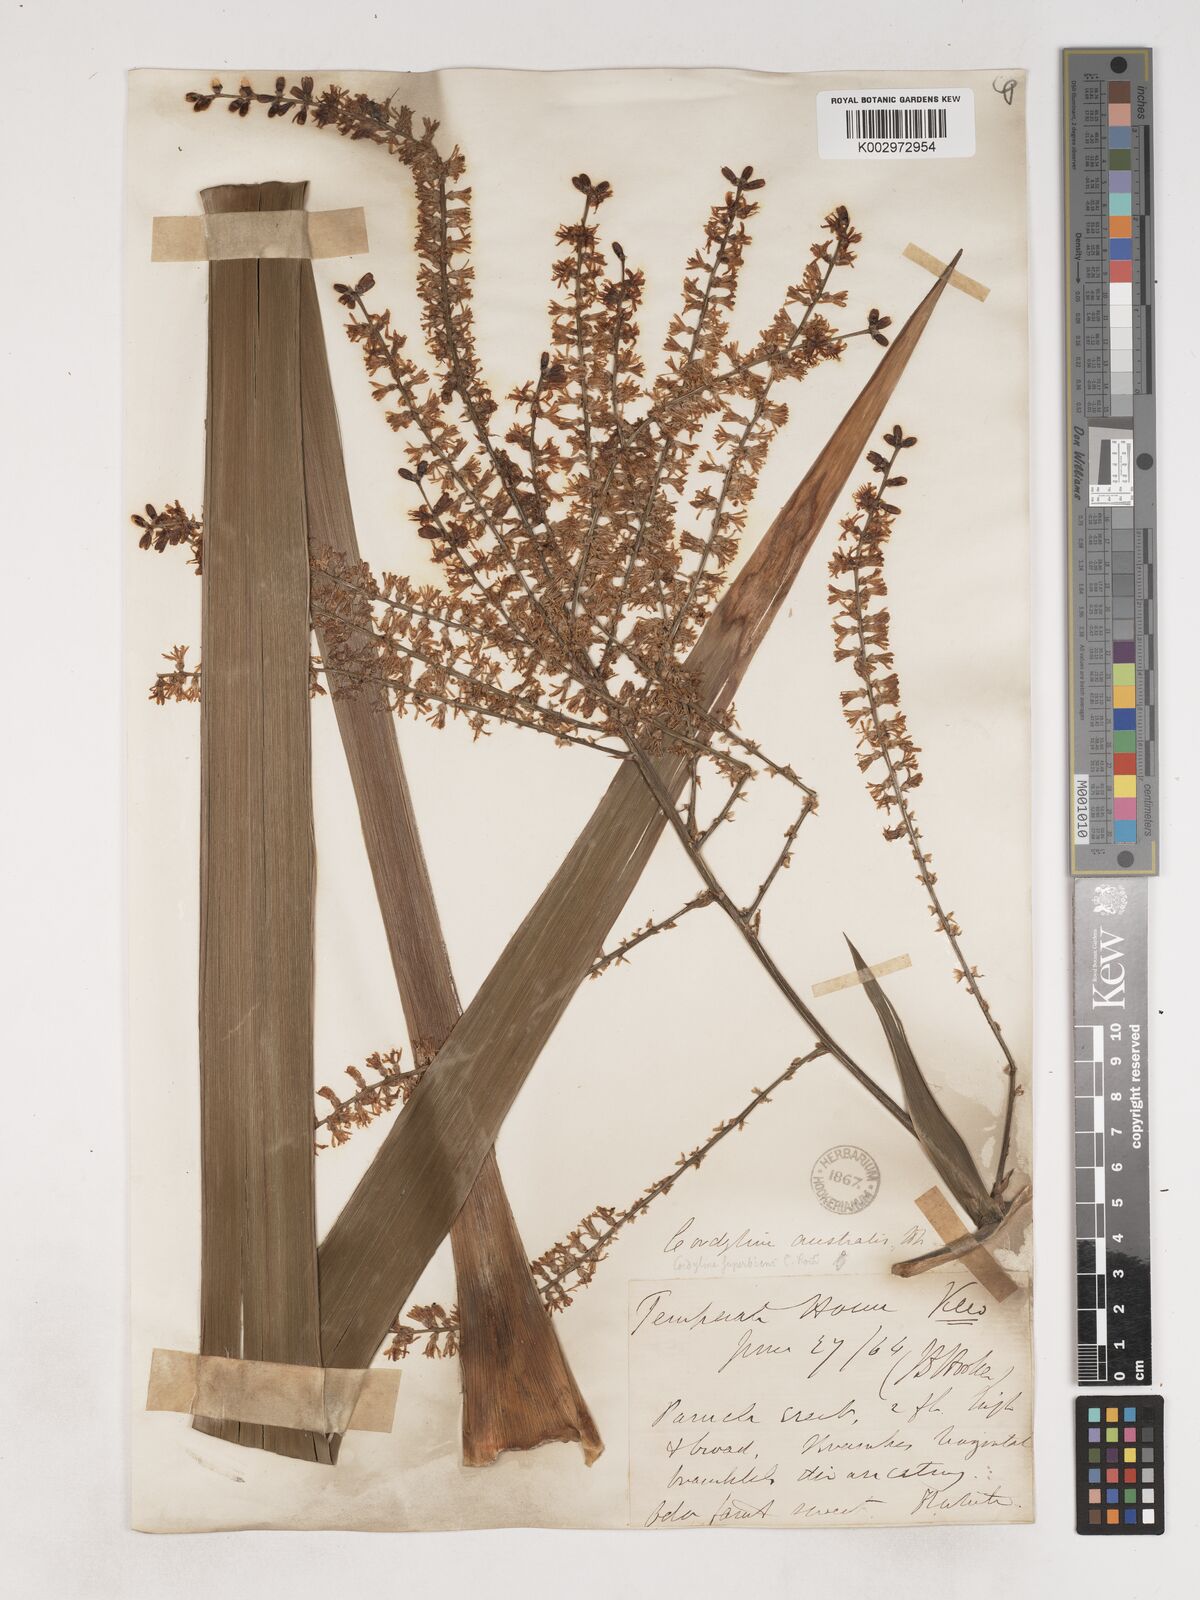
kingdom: Plantae
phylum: Tracheophyta
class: Liliopsida
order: Asparagales
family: Asparagaceae
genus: Cordyline
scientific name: Cordyline australis
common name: Cabbage-palm
